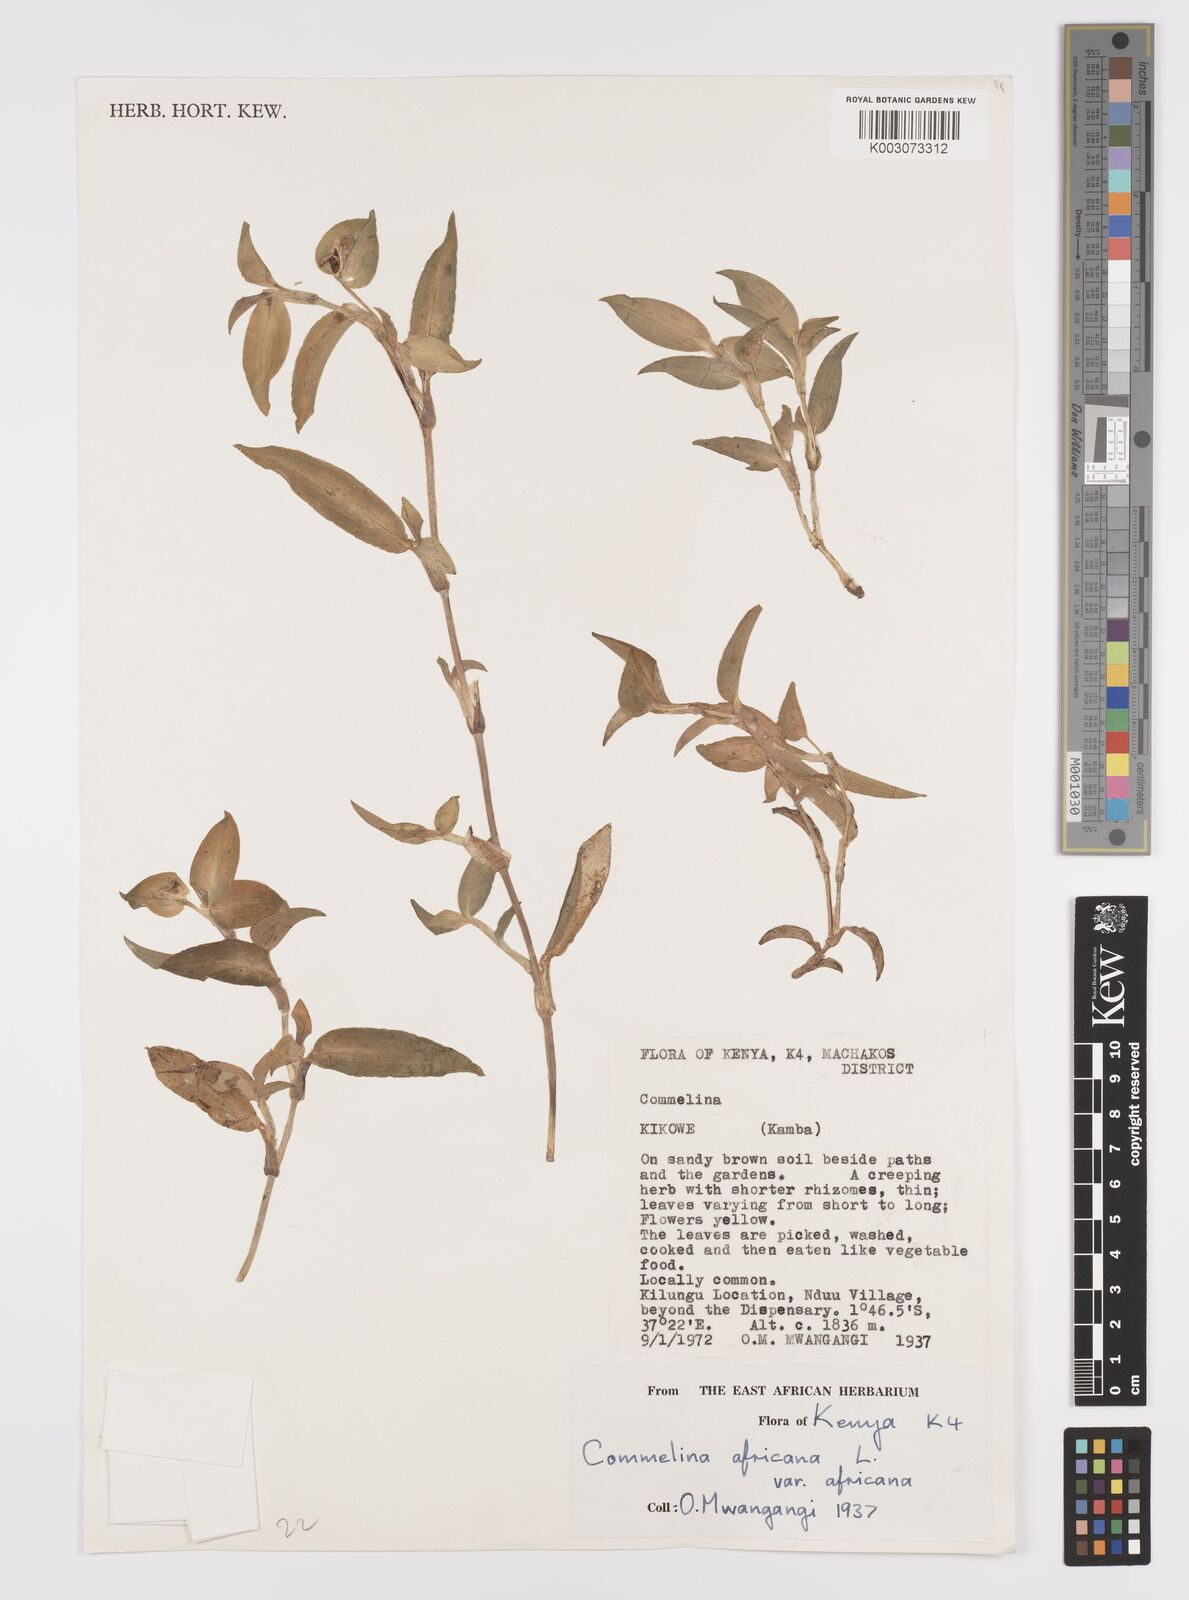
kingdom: Plantae
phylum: Tracheophyta
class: Liliopsida
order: Commelinales
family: Commelinaceae
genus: Commelina
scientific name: Commelina africana
